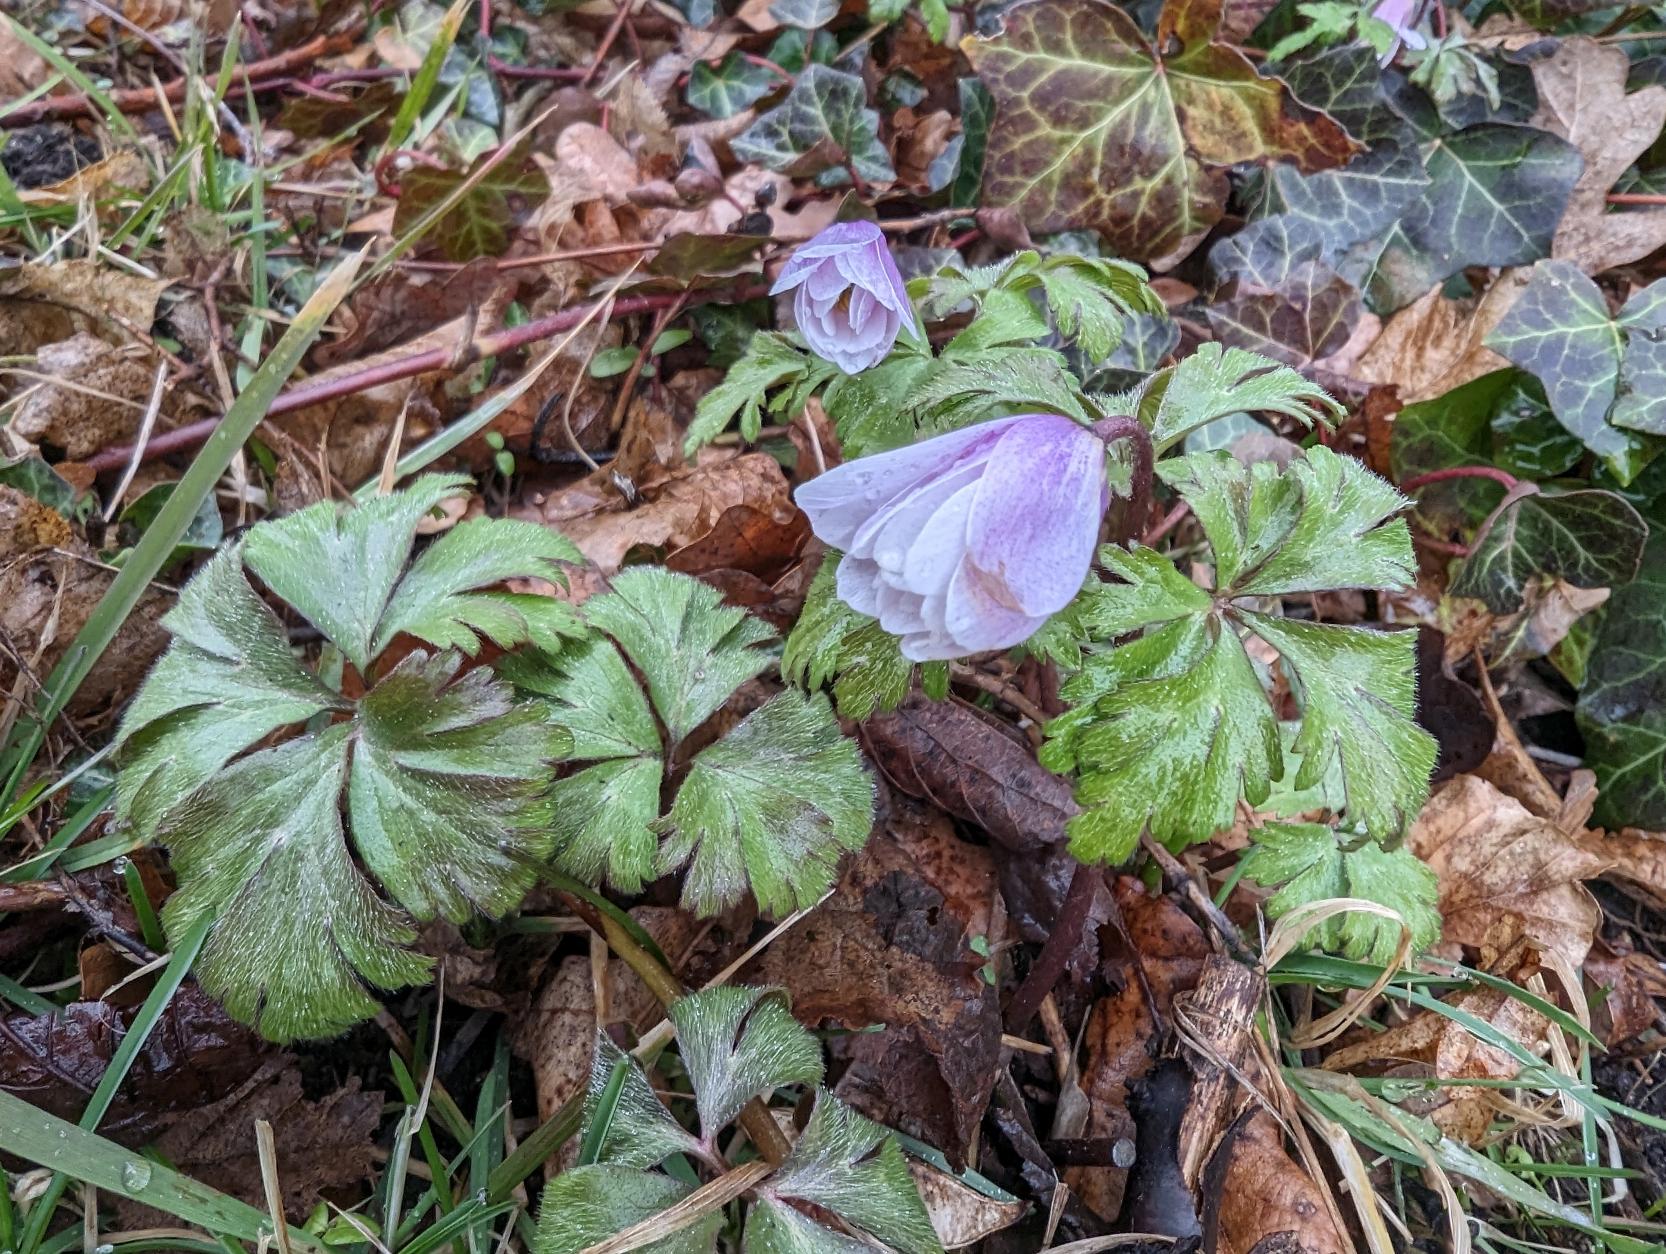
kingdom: Plantae
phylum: Tracheophyta
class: Magnoliopsida
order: Ranunculales
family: Ranunculaceae
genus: Anemone
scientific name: Anemone blanda
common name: Balkan-anemone
